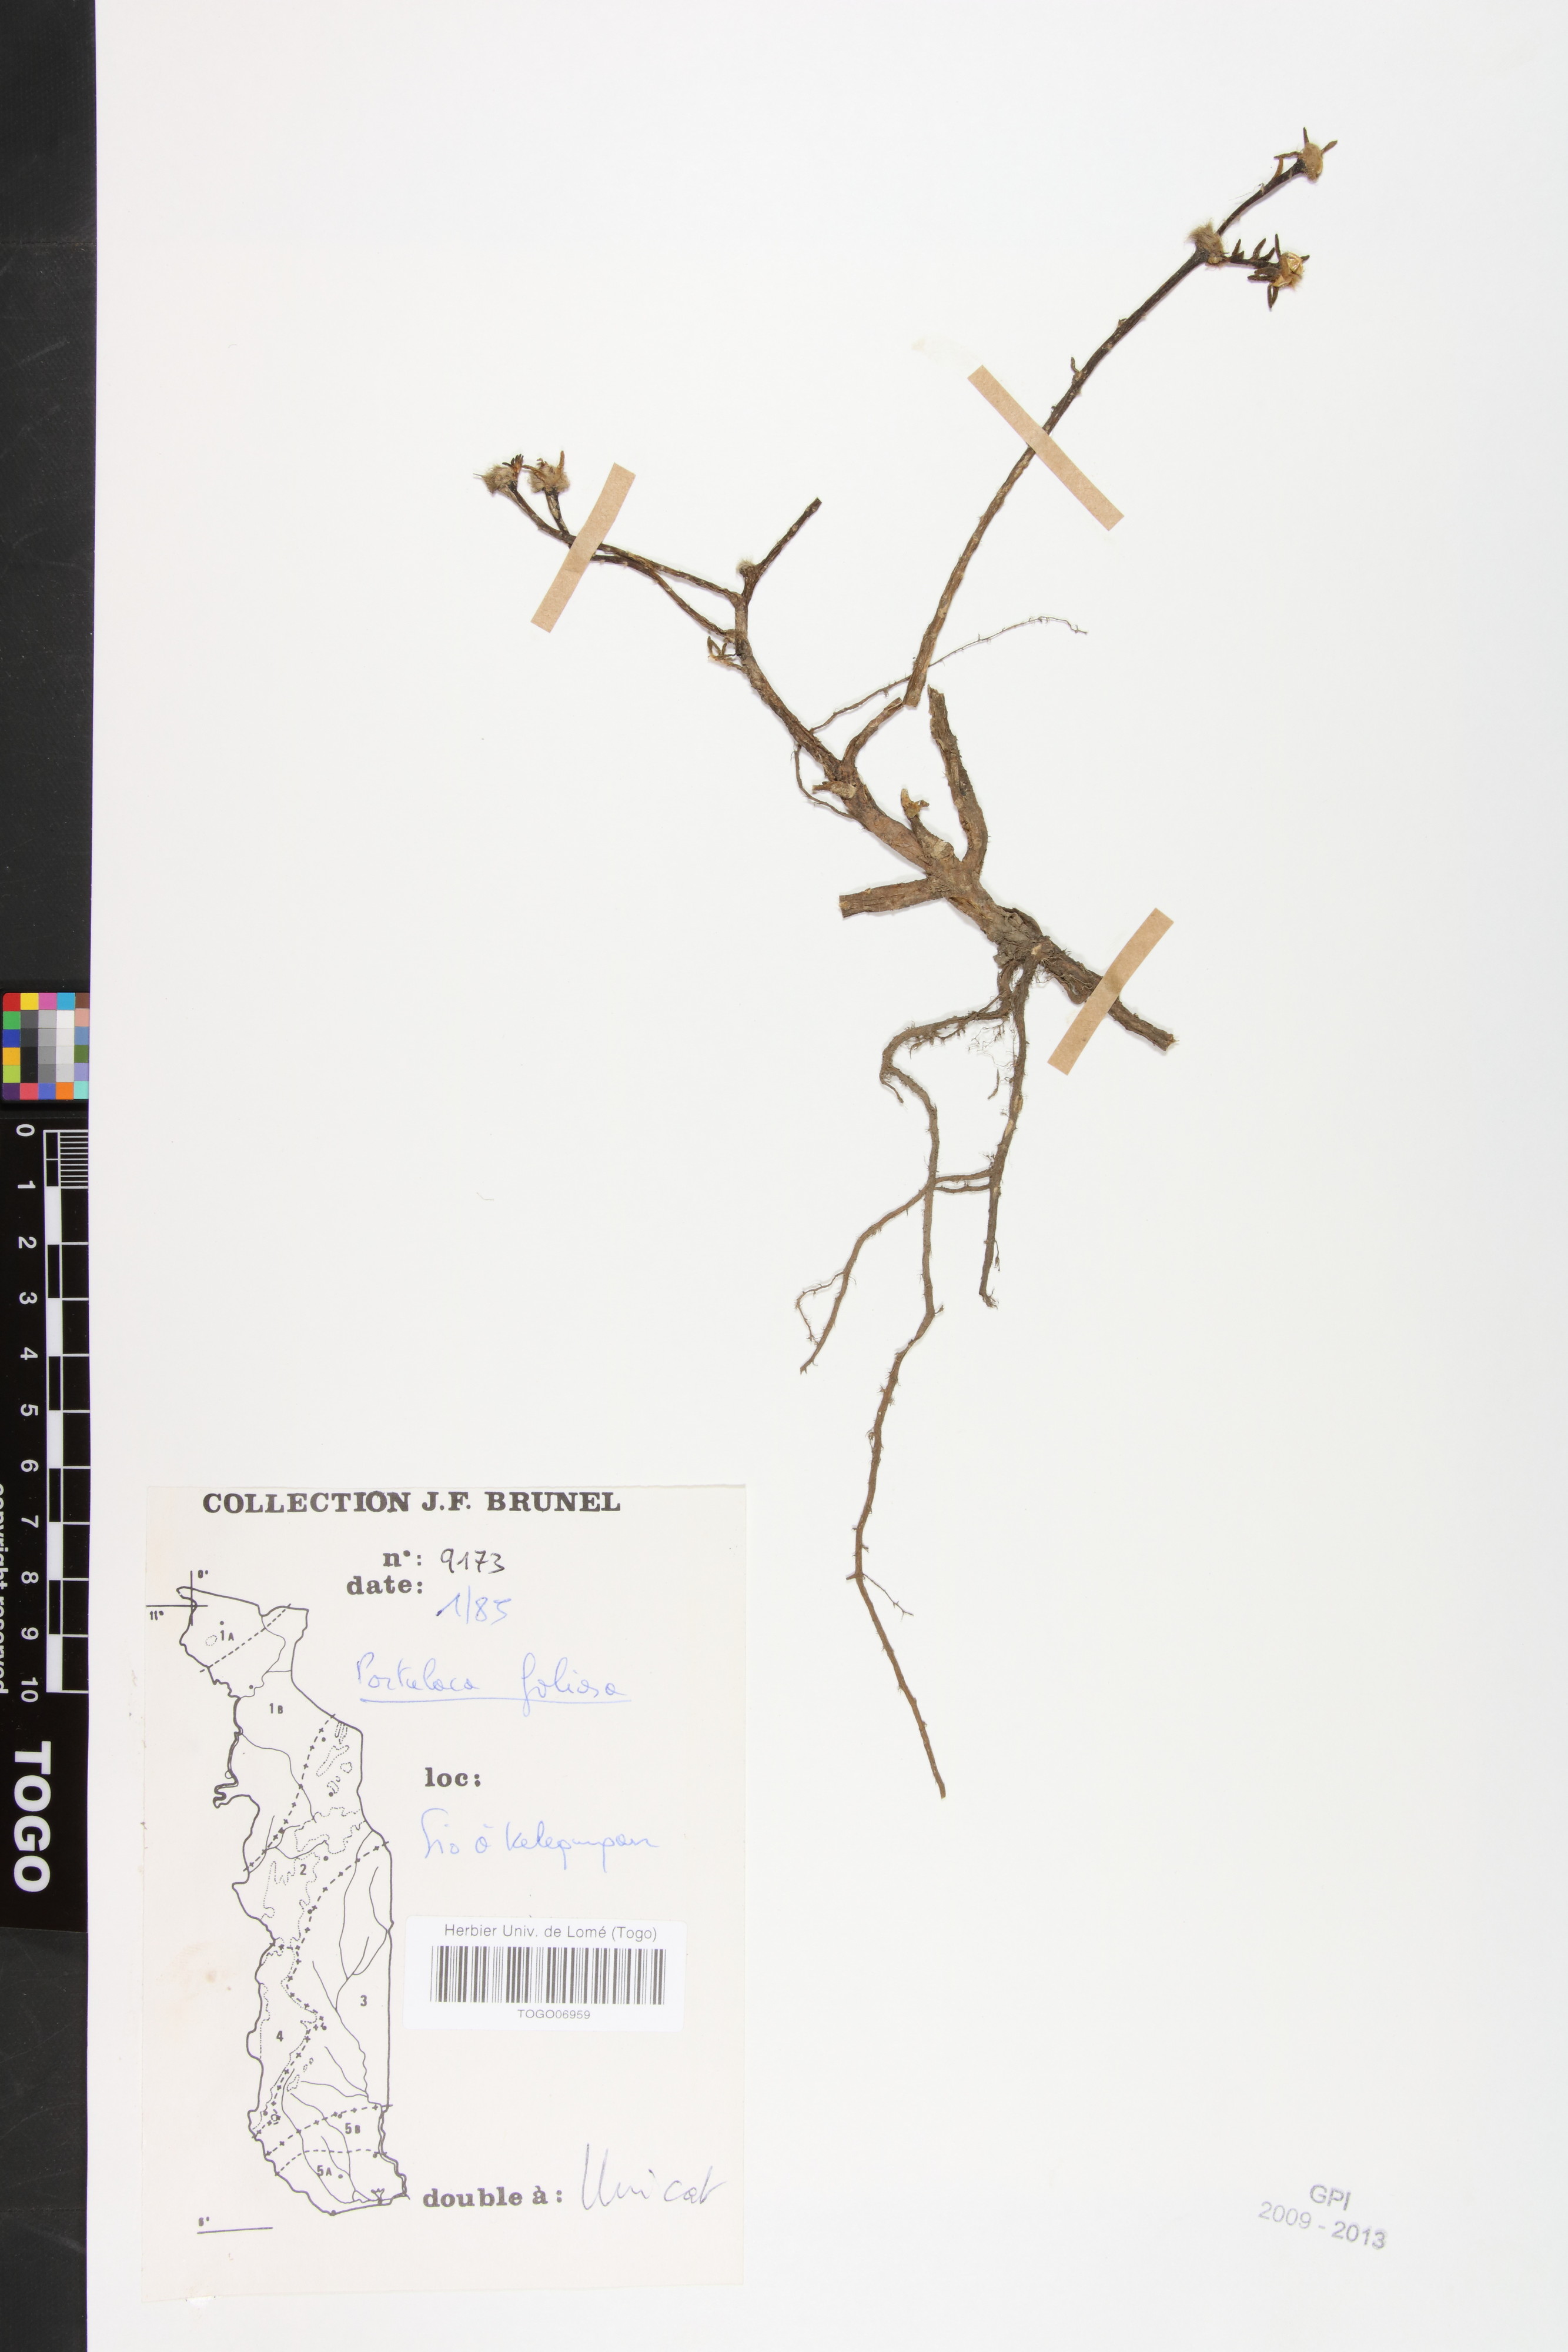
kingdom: Plantae
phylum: Tracheophyta
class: Magnoliopsida
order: Caryophyllales
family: Portulacaceae
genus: Portulaca
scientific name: Portulaca foliosa
